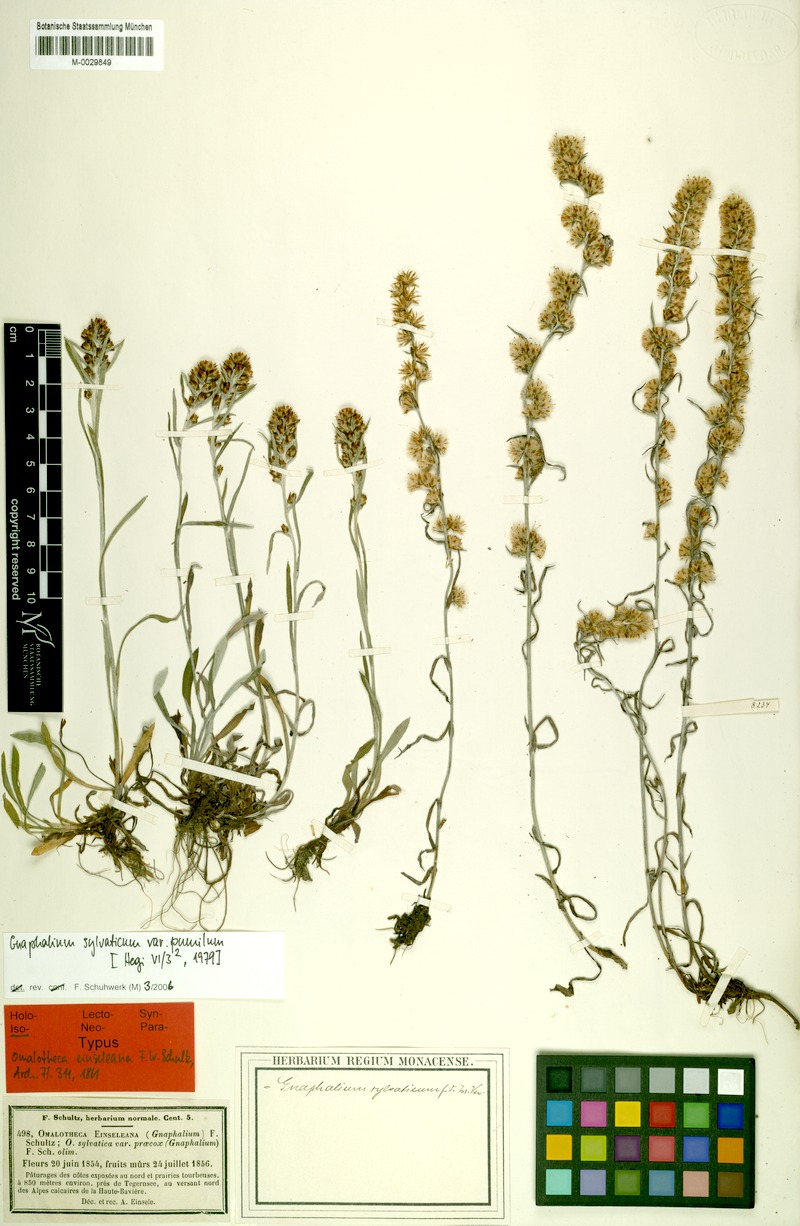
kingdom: Plantae
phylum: Tracheophyta
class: Magnoliopsida
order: Asterales
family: Asteraceae
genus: Omalotheca
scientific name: Omalotheca sylvatica
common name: Heath cudweed
